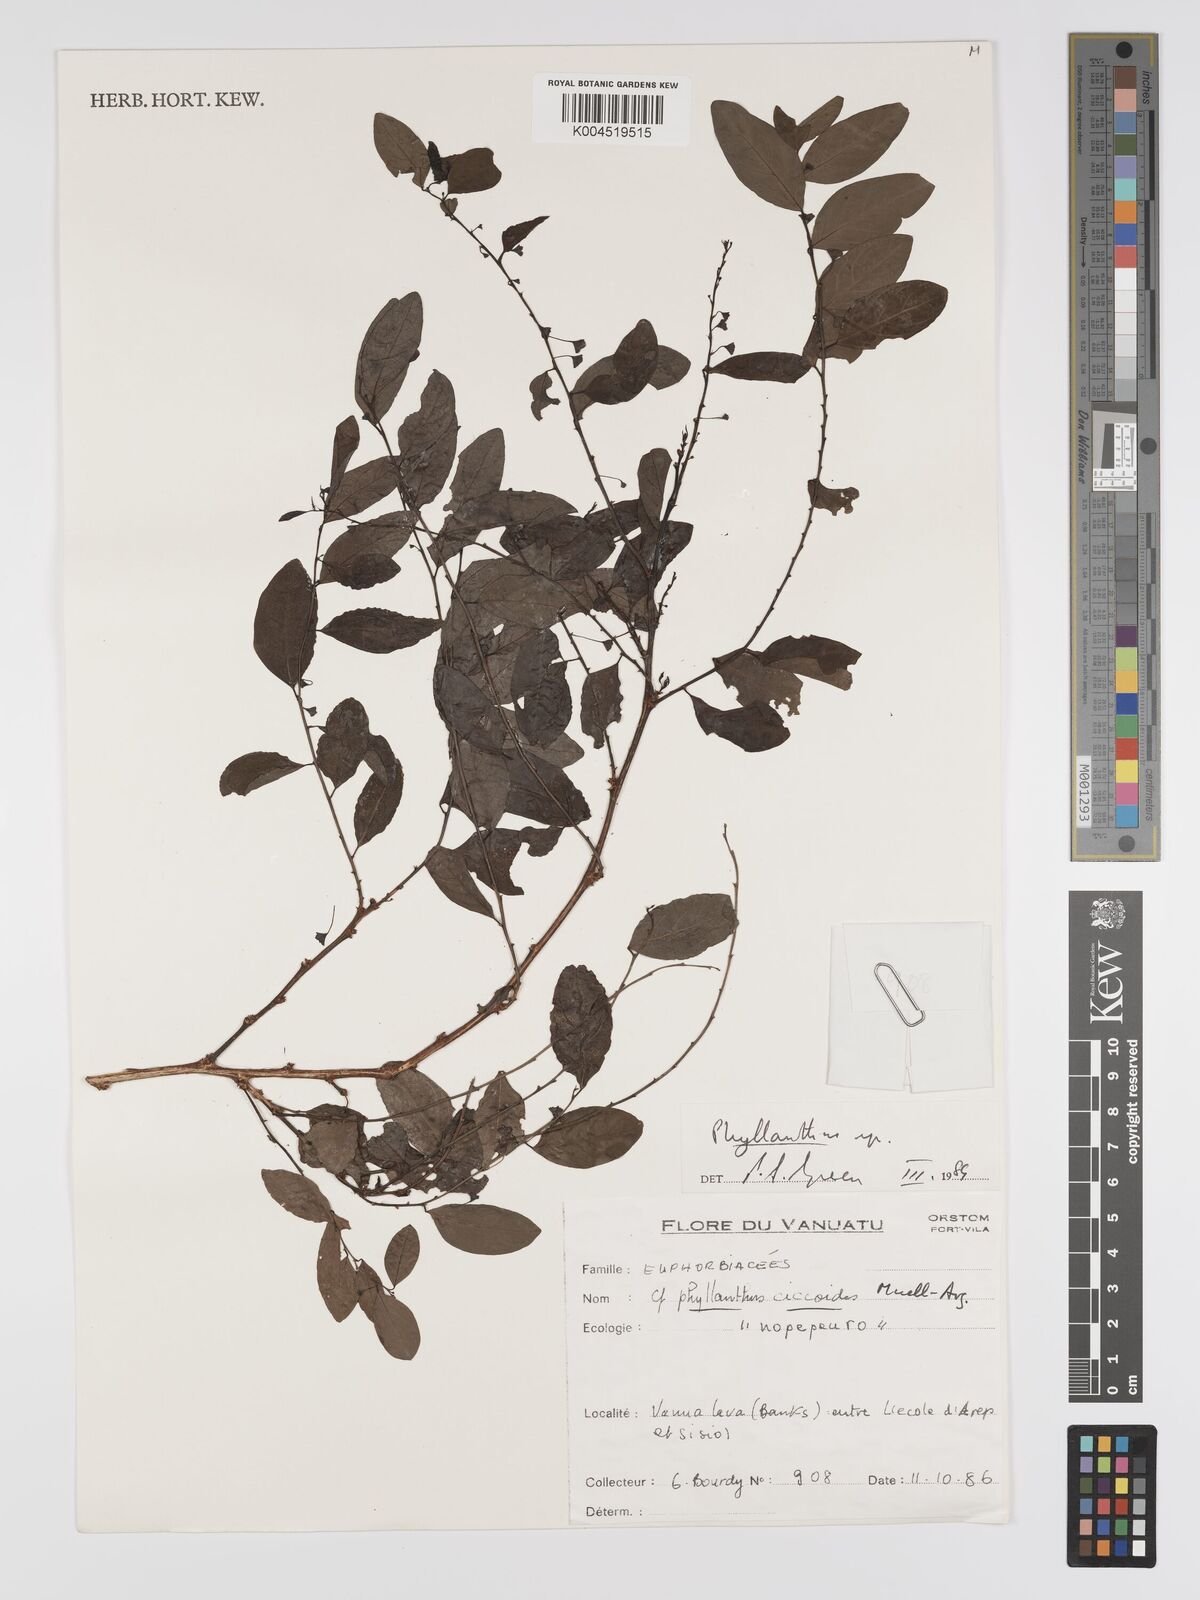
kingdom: Plantae
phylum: Tracheophyta
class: Magnoliopsida
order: Malpighiales
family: Phyllanthaceae
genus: Phyllanthus
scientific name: Phyllanthus
